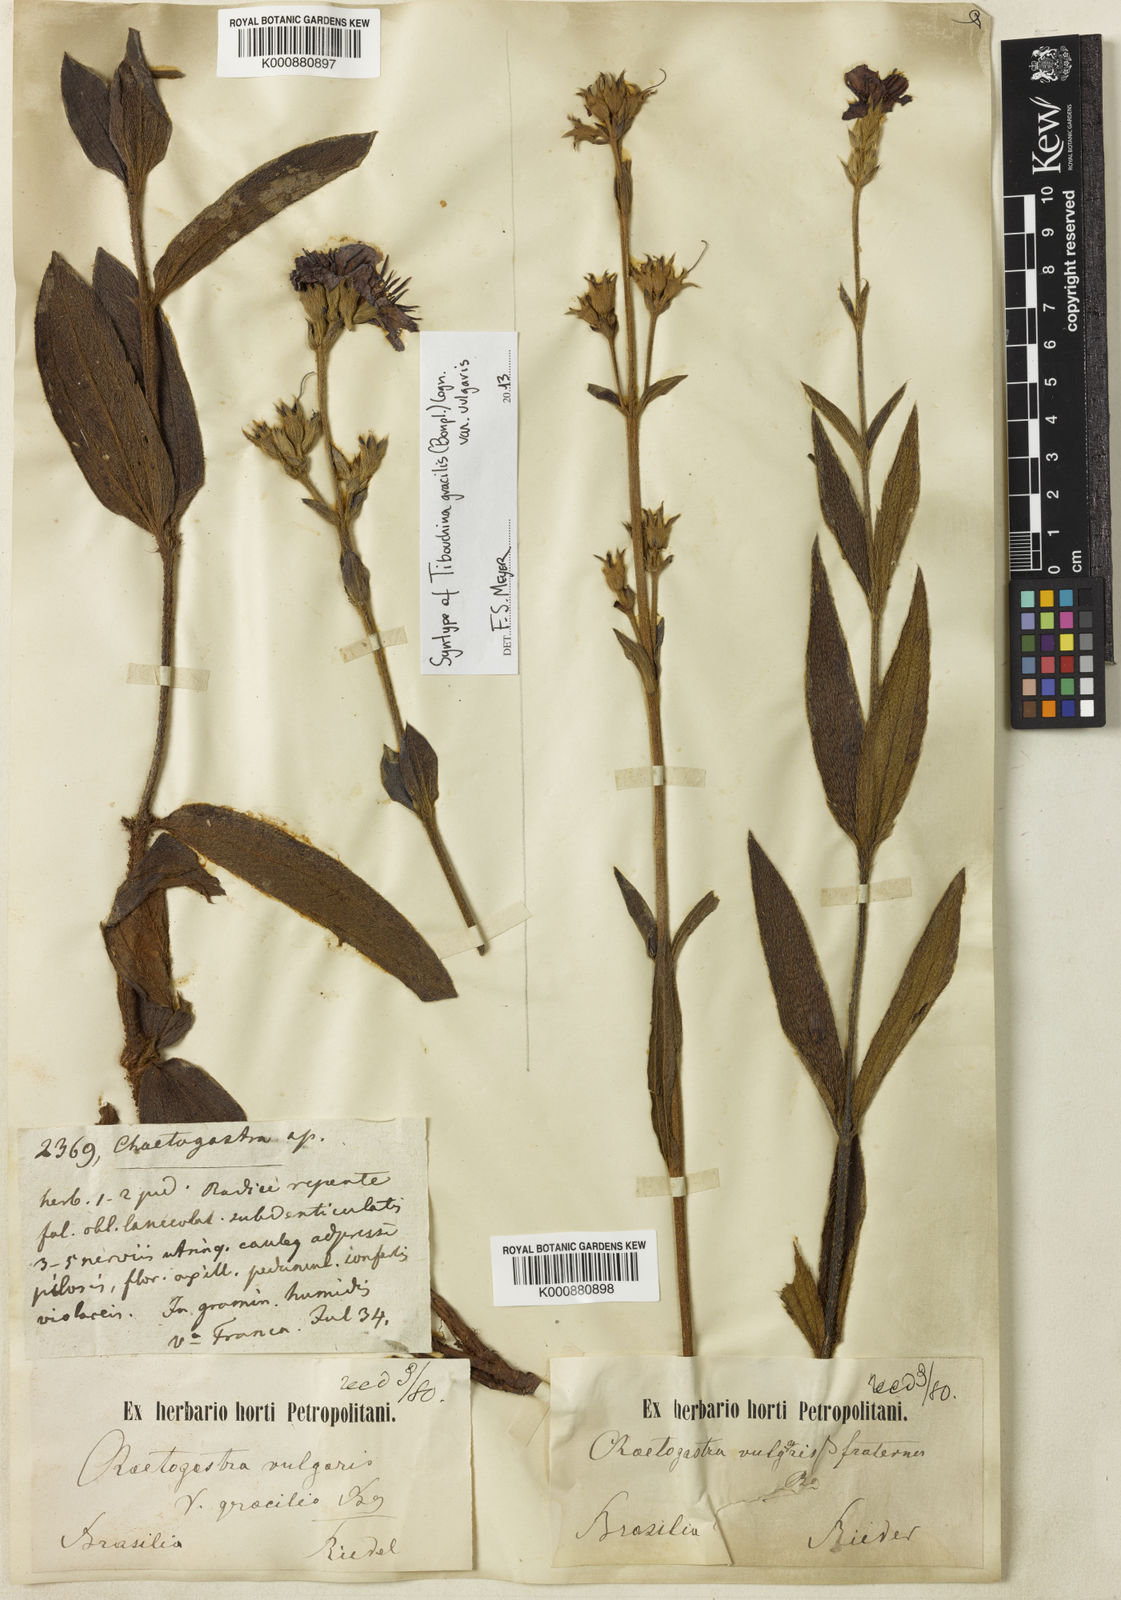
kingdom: Plantae
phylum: Tracheophyta
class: Magnoliopsida
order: Myrtales
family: Melastomataceae
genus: Chaetogastra
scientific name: Chaetogastra gracilis
